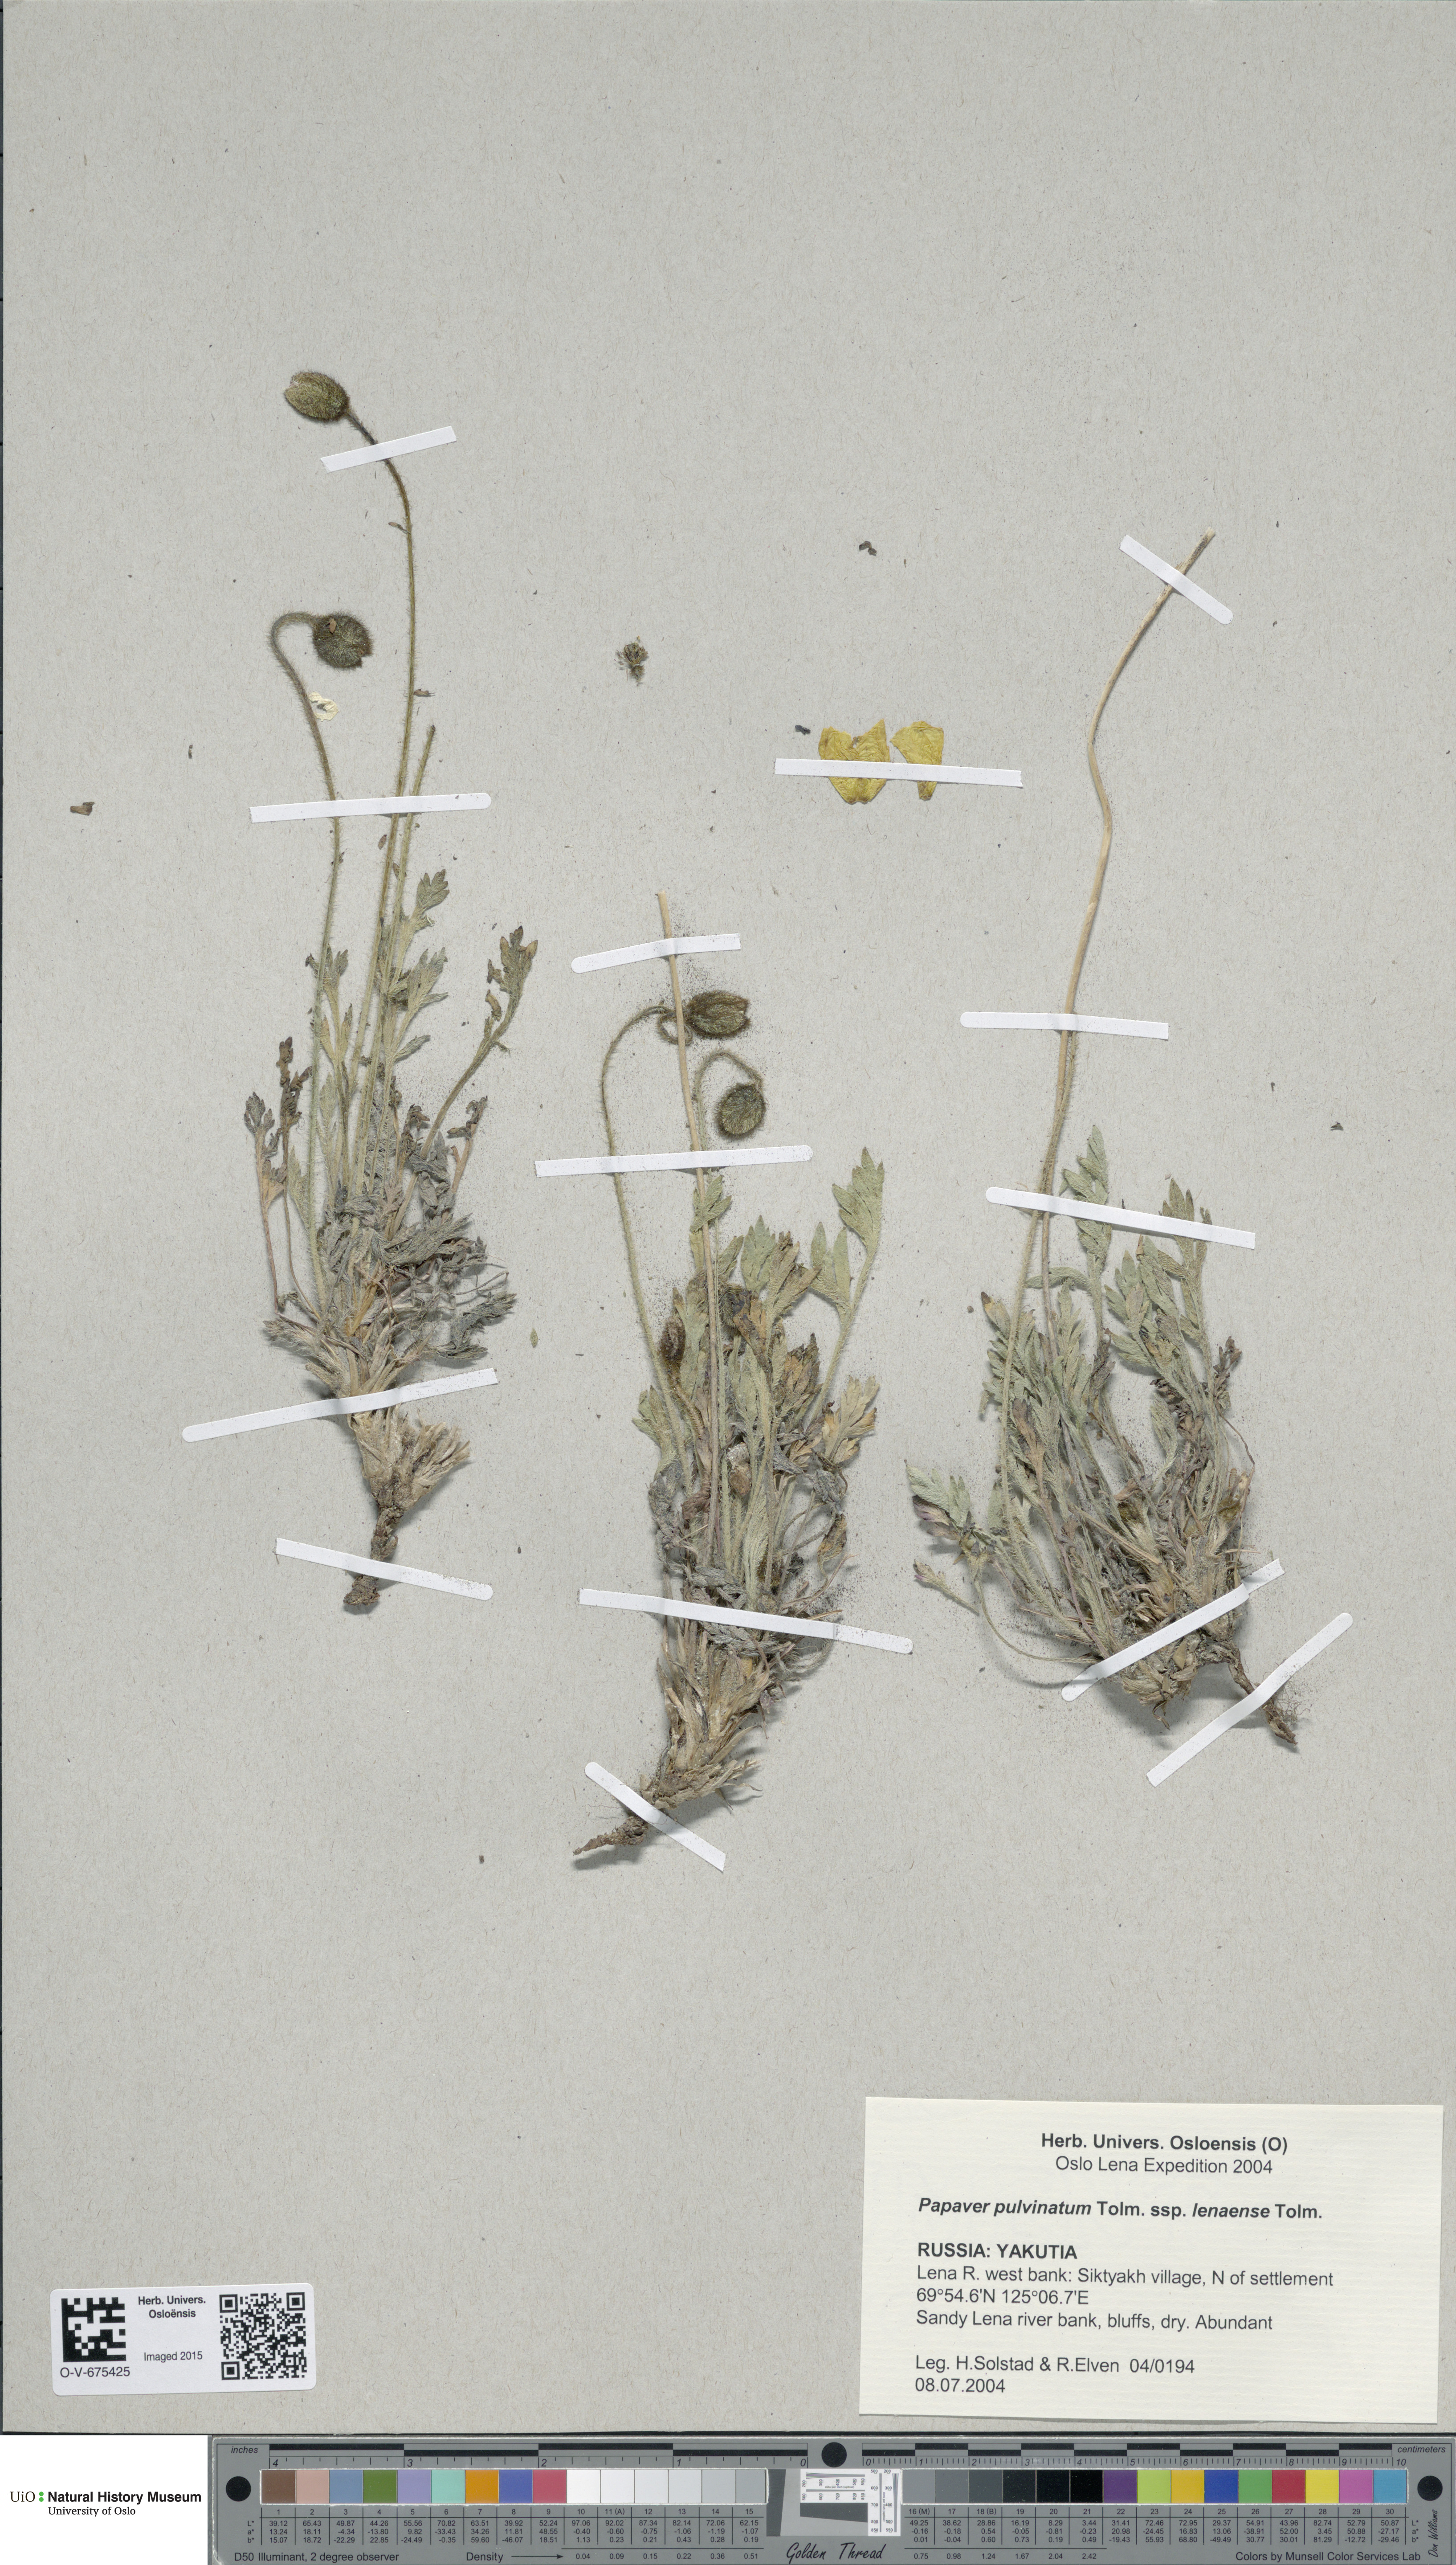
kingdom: Plantae
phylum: Tracheophyta
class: Magnoliopsida
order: Ranunculales
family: Papaveraceae
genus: Papaver
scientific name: Papaver lenaense
